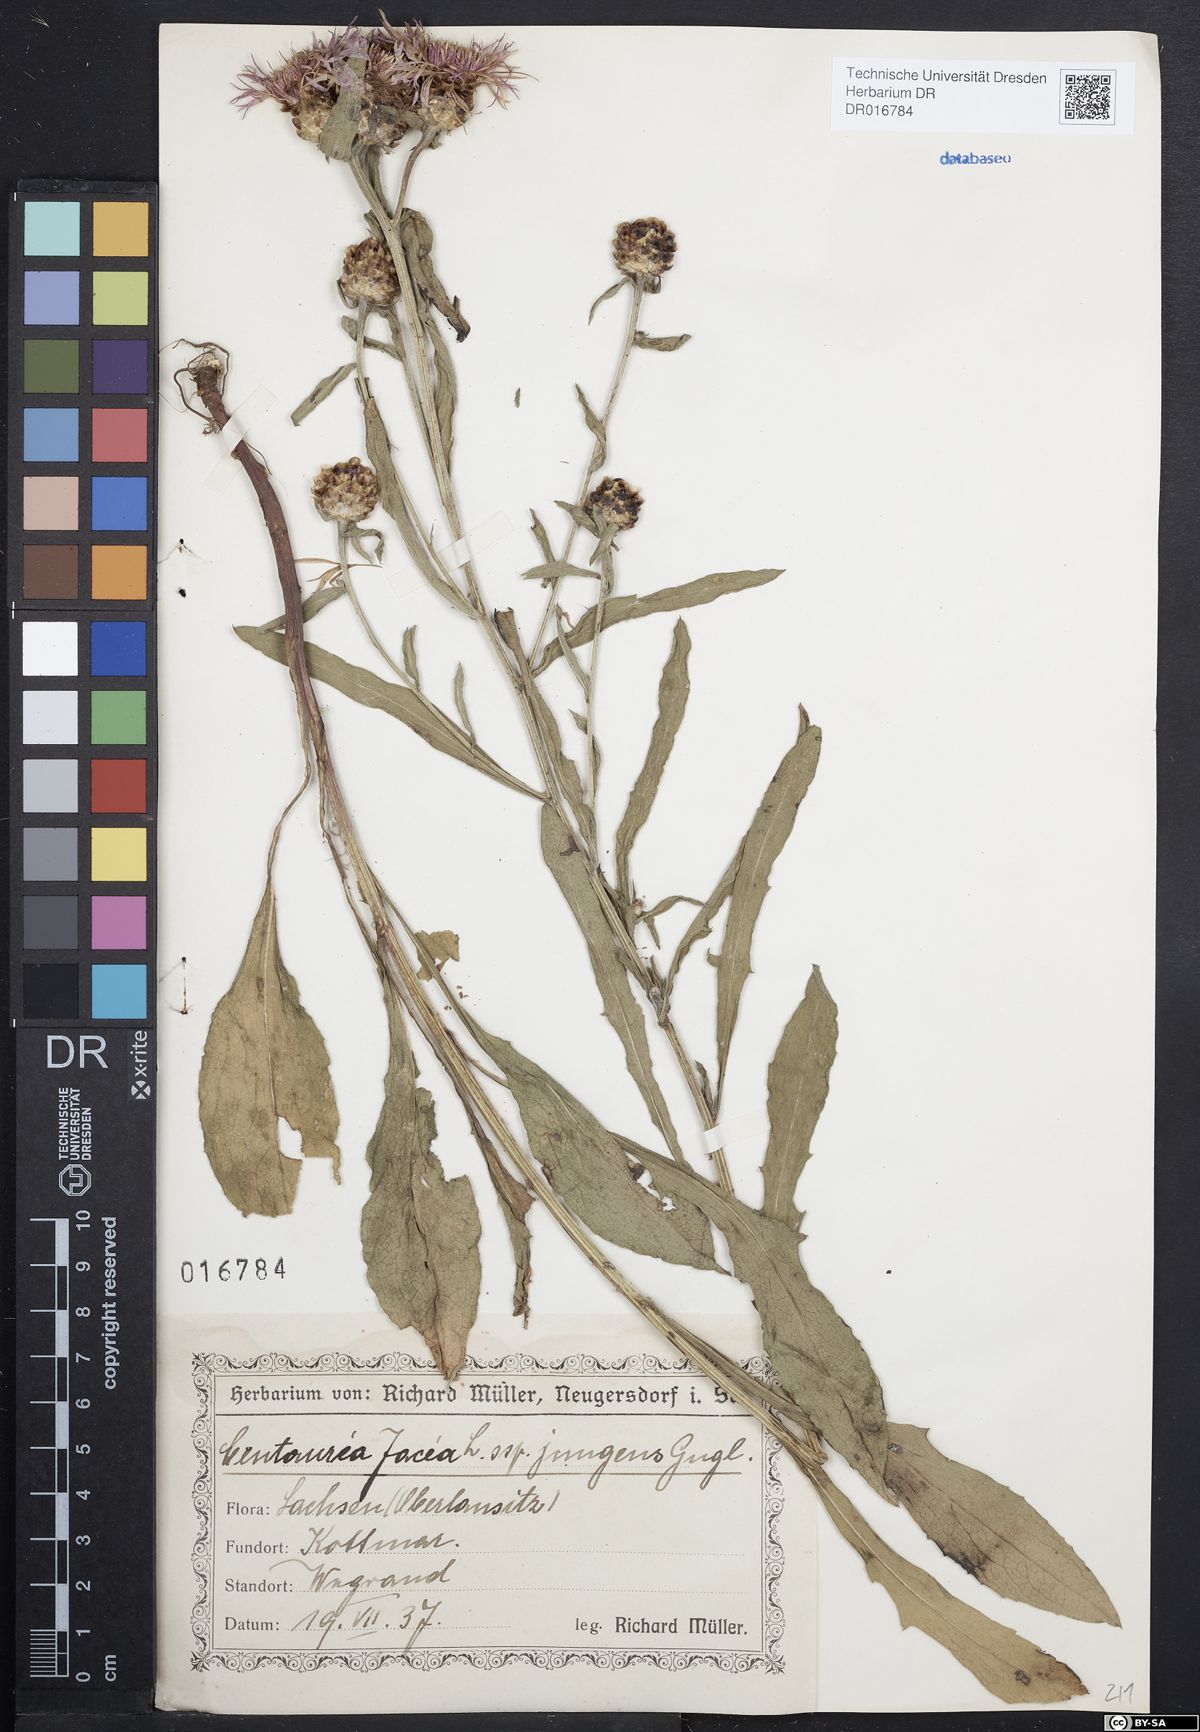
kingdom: Plantae
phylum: Tracheophyta
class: Magnoliopsida
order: Asterales
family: Asteraceae
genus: Centaurea
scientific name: Centaurea jacea
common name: Brown knapweed
